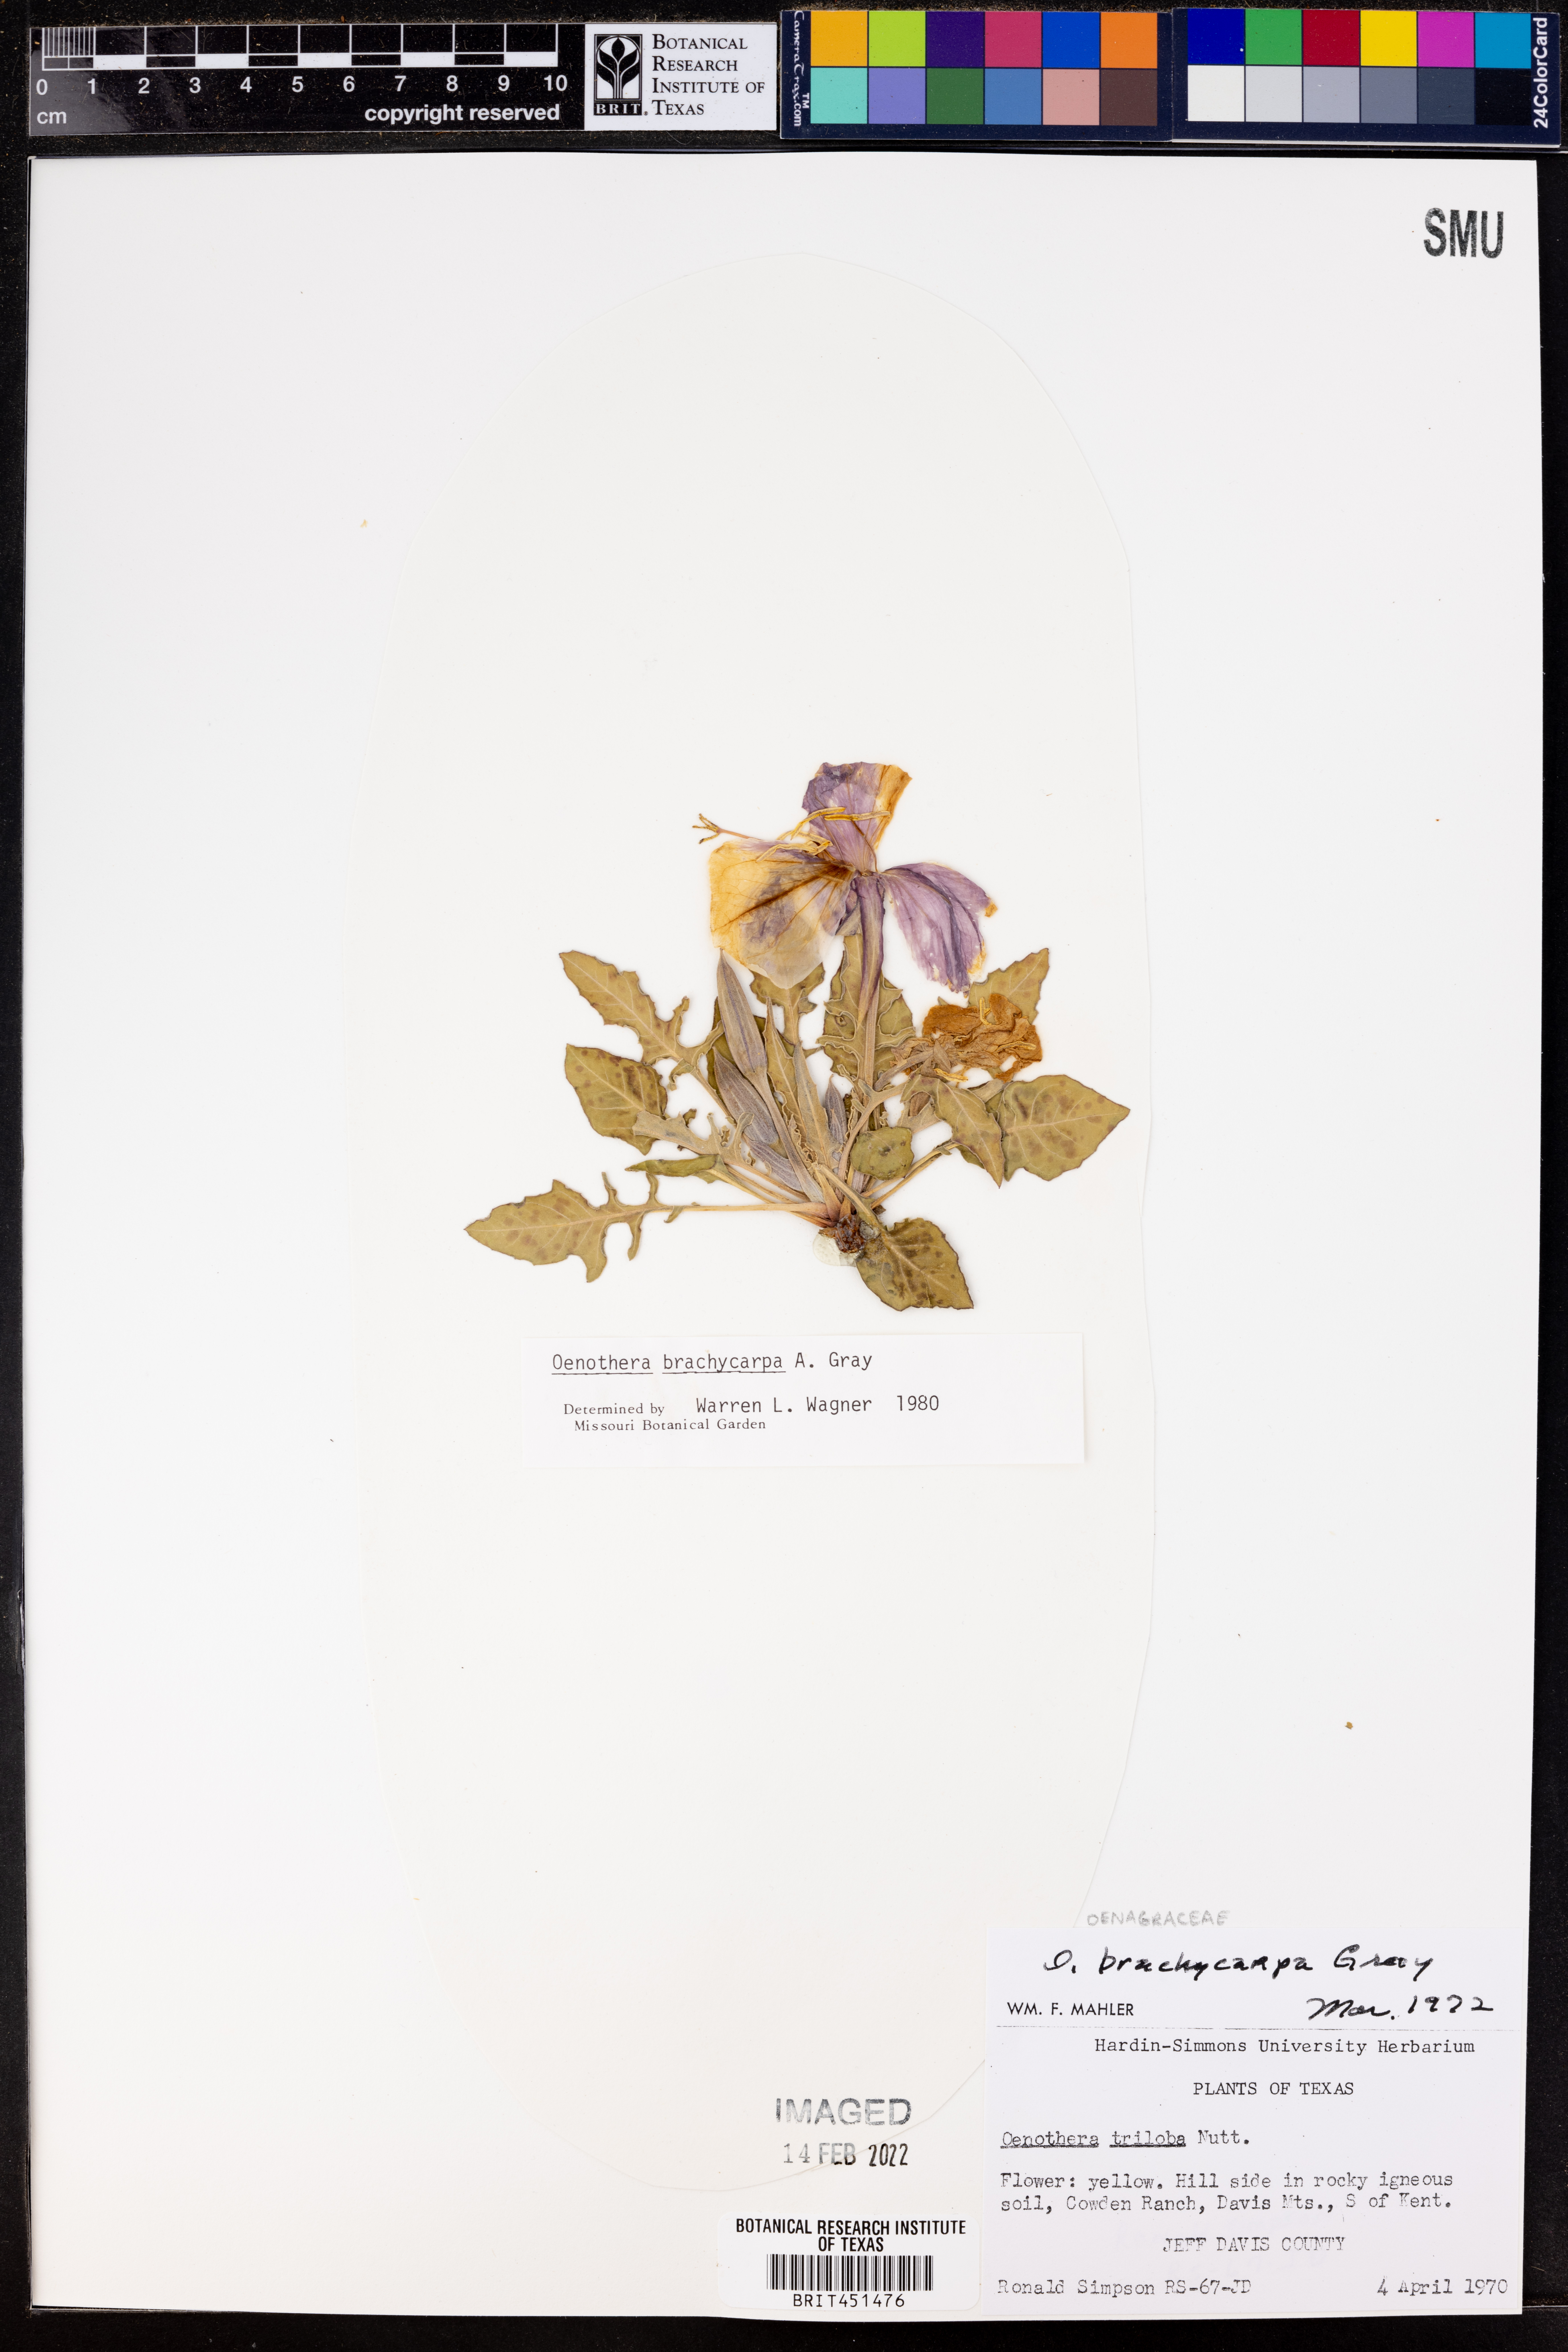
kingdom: Plantae
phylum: Tracheophyta
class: Magnoliopsida
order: Myrtales
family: Onagraceae
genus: Oenothera
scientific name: Oenothera brachycarpa
